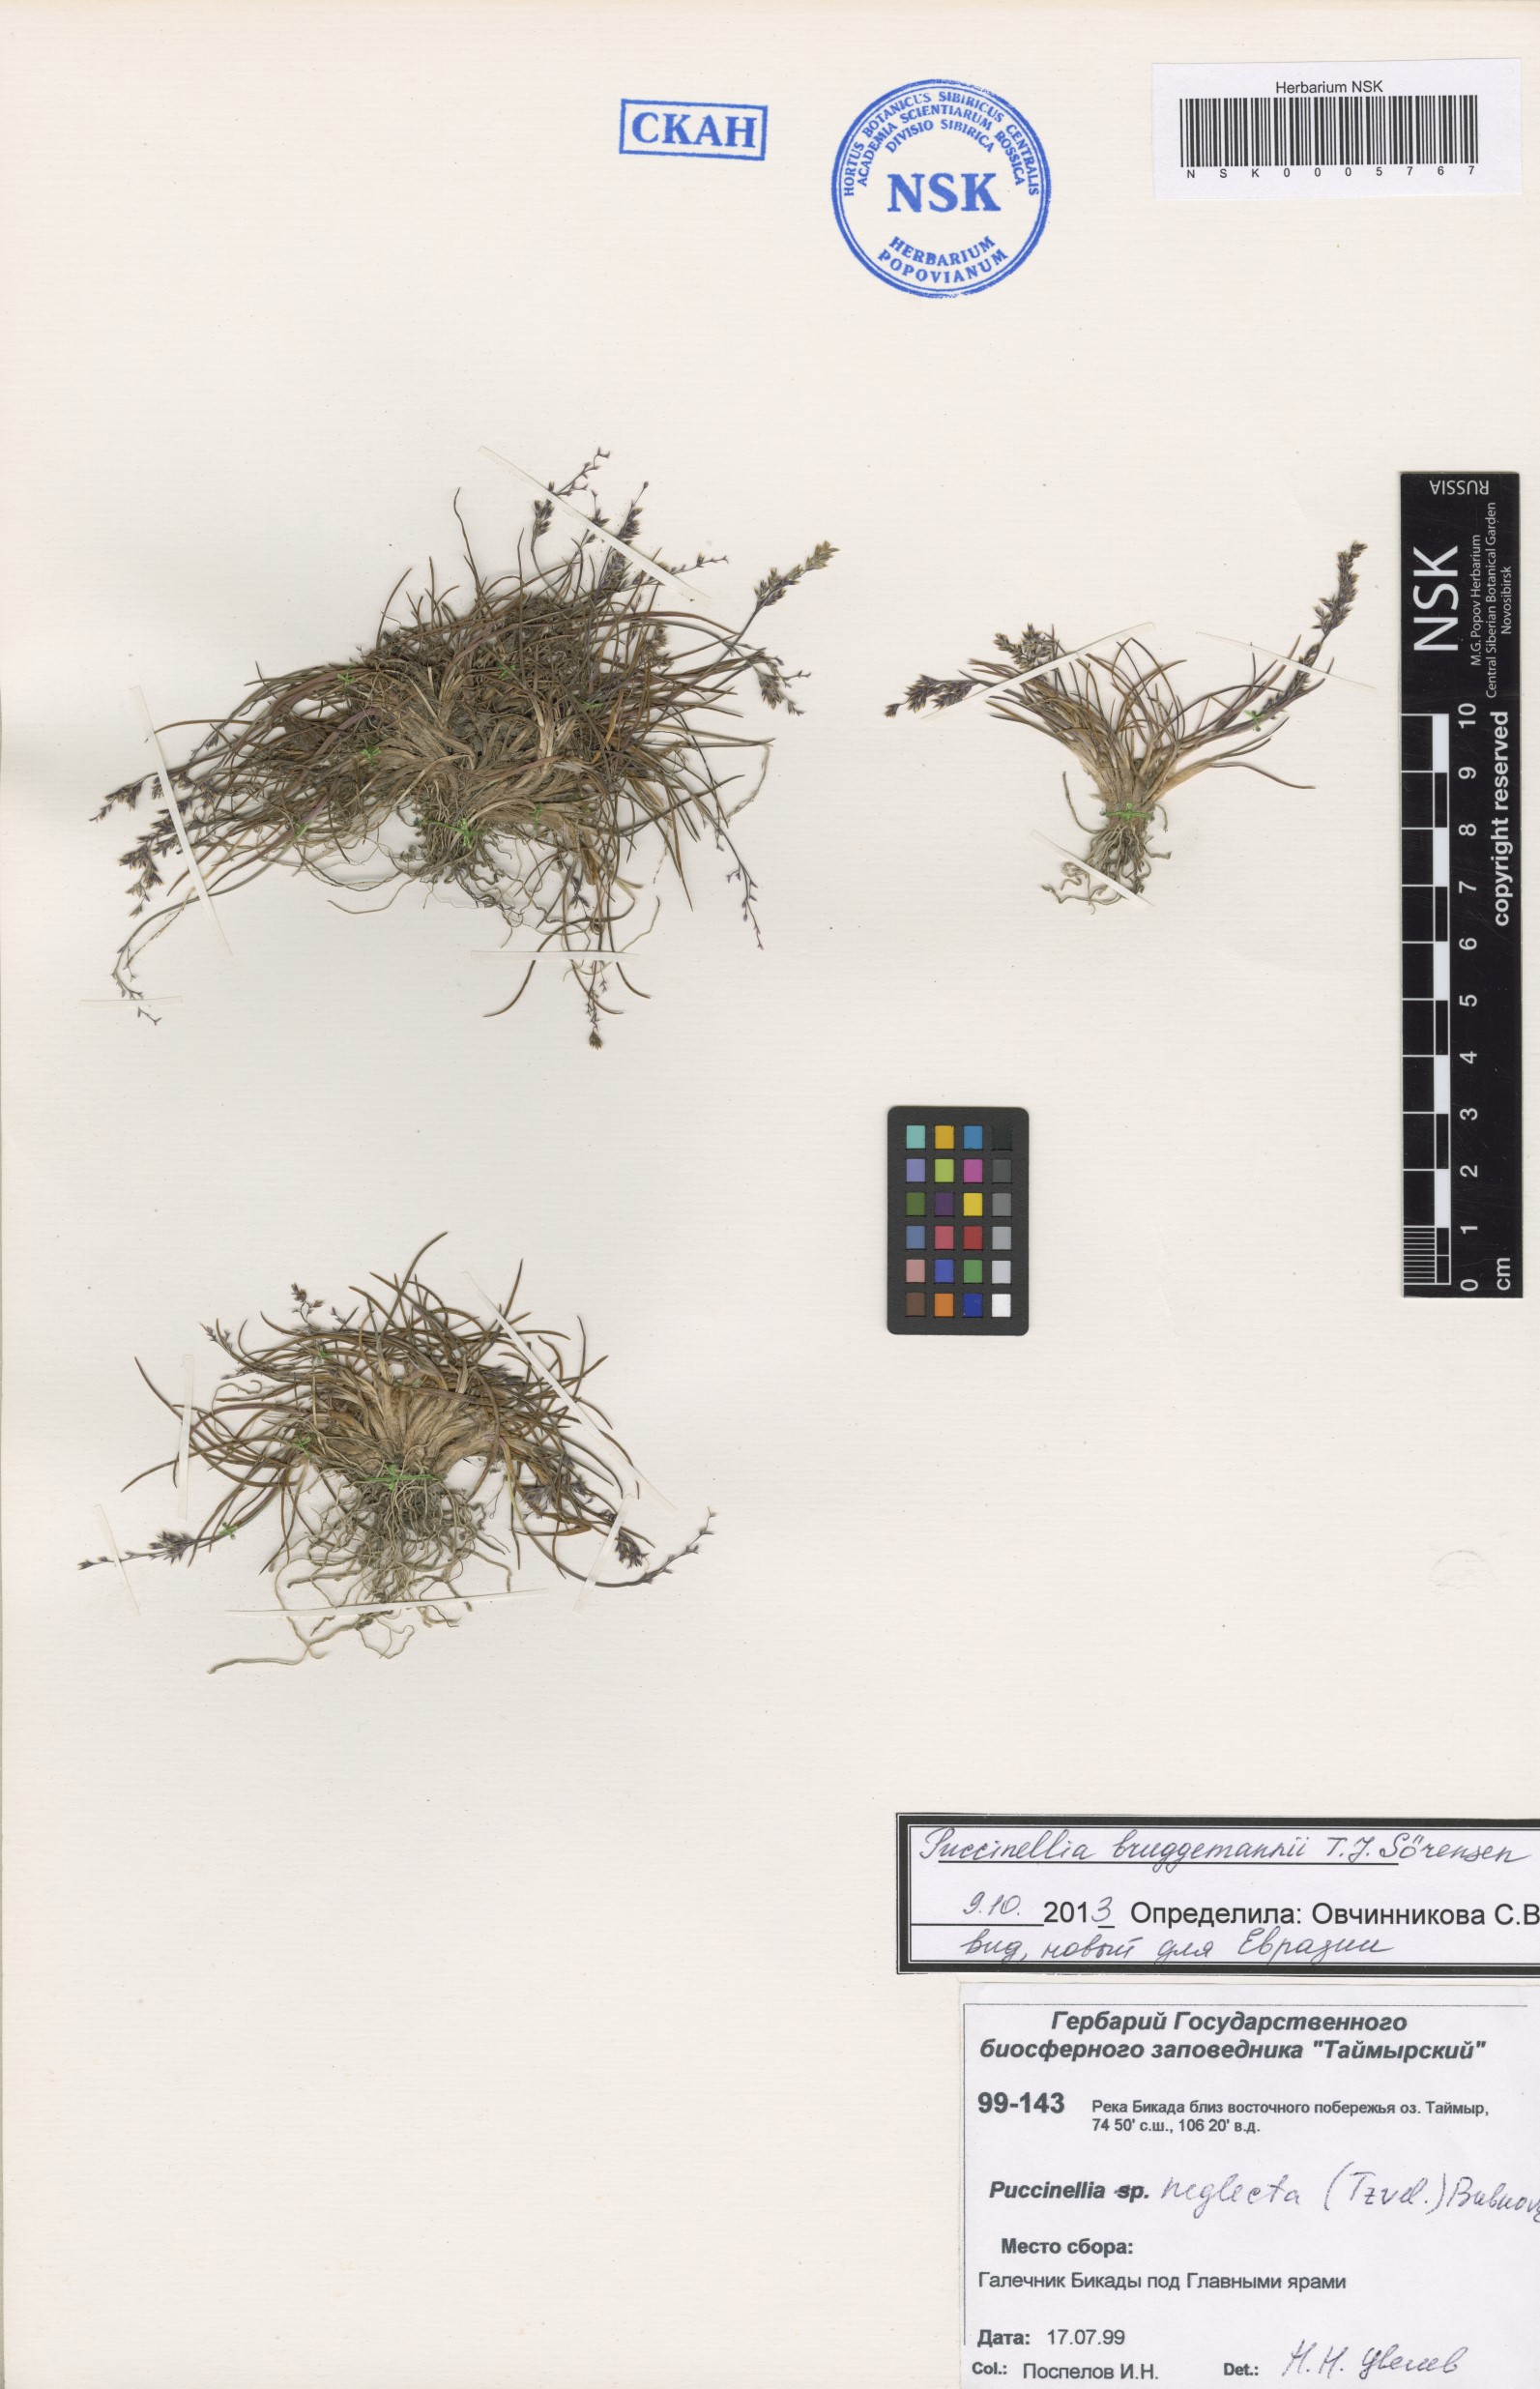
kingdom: Plantae
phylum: Tracheophyta
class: Liliopsida
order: Poales
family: Poaceae
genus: Puccinellia
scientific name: Puccinellia bruggemannii
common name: Bruggemann's alkaligrass
